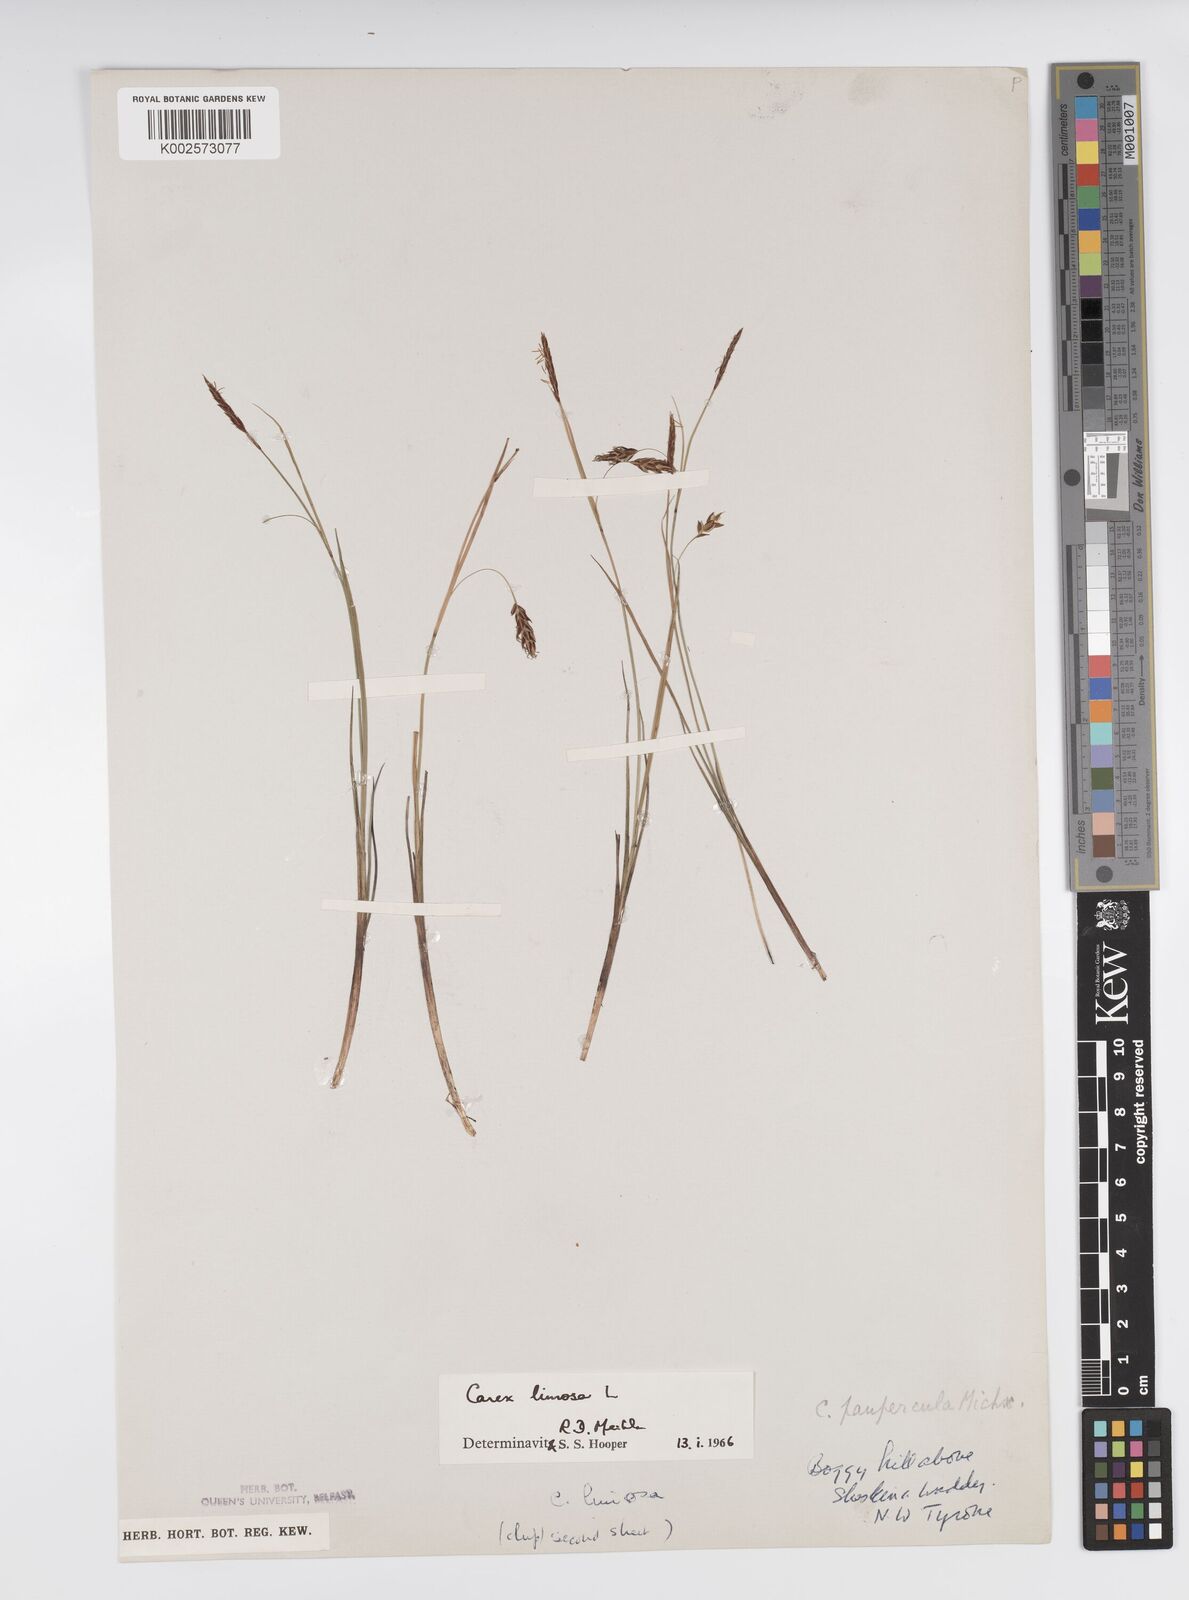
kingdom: Plantae
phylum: Tracheophyta
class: Liliopsida
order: Poales
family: Cyperaceae
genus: Carex
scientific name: Carex limosa
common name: Bog sedge
